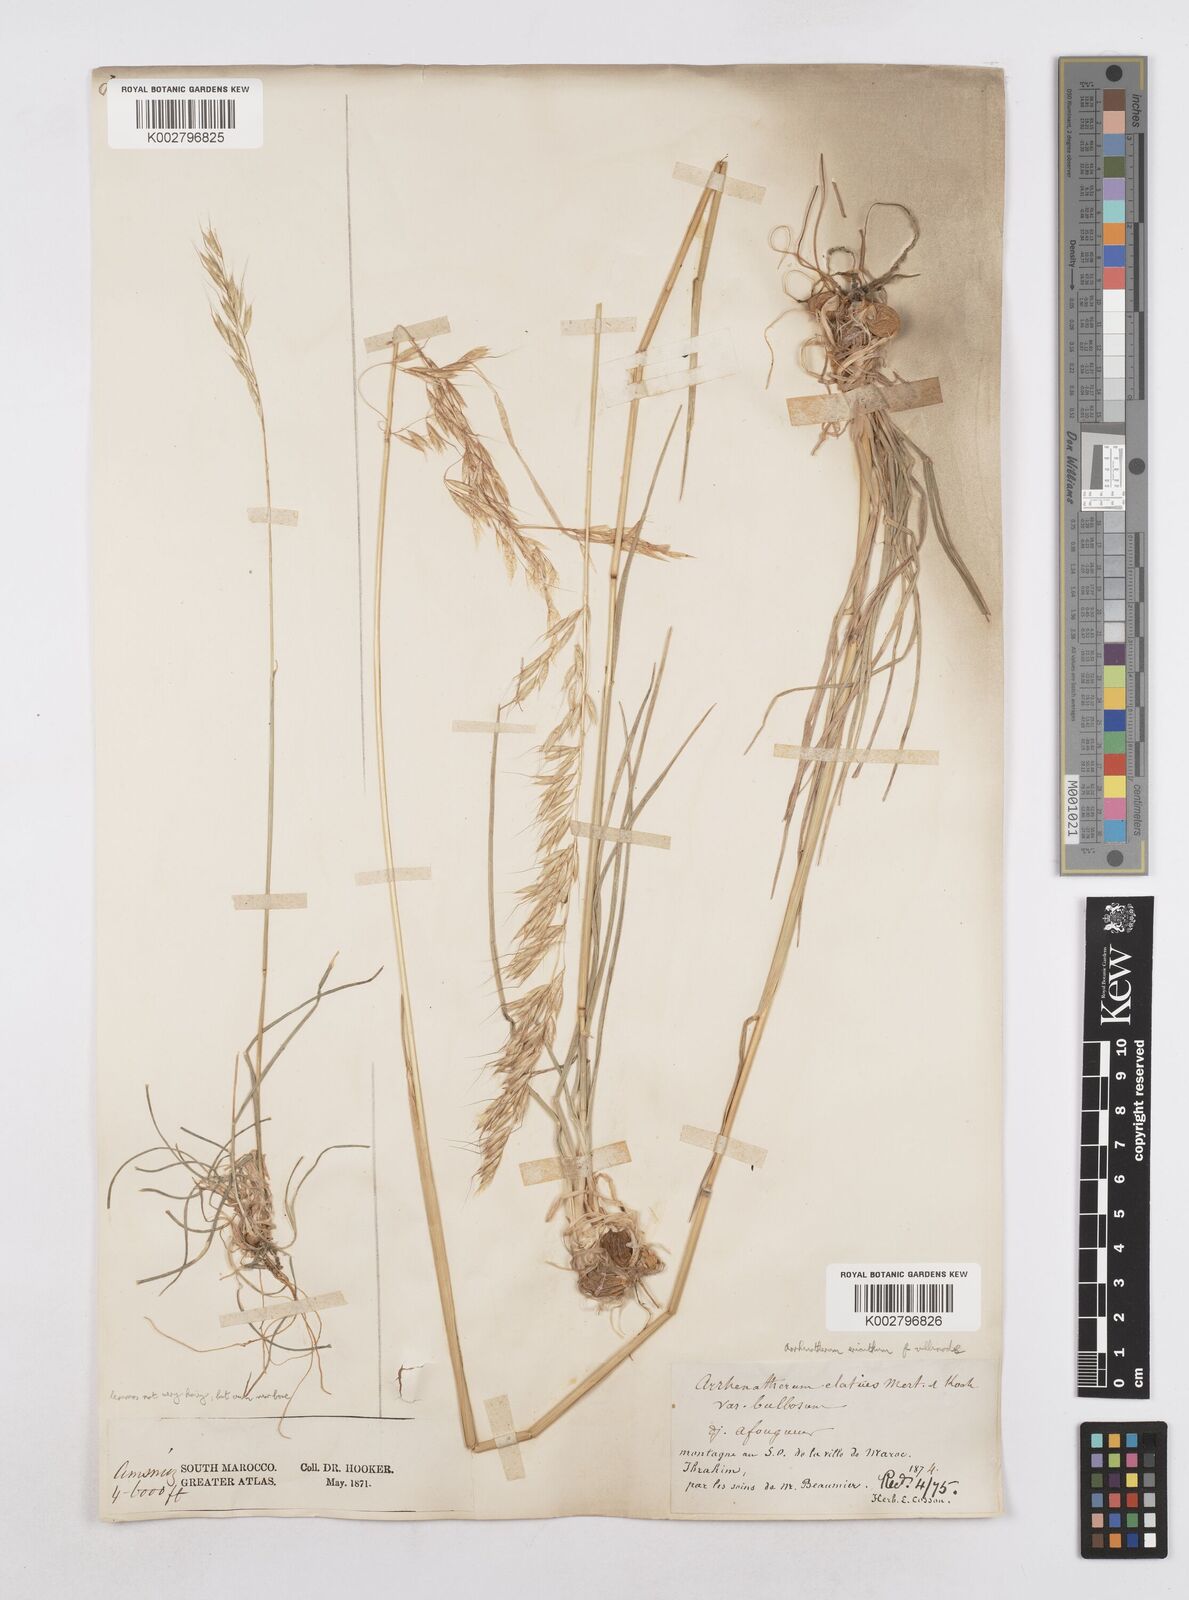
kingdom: Plantae
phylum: Tracheophyta
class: Liliopsida
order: Poales
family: Poaceae
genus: Arrhenatherum
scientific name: Arrhenatherum
